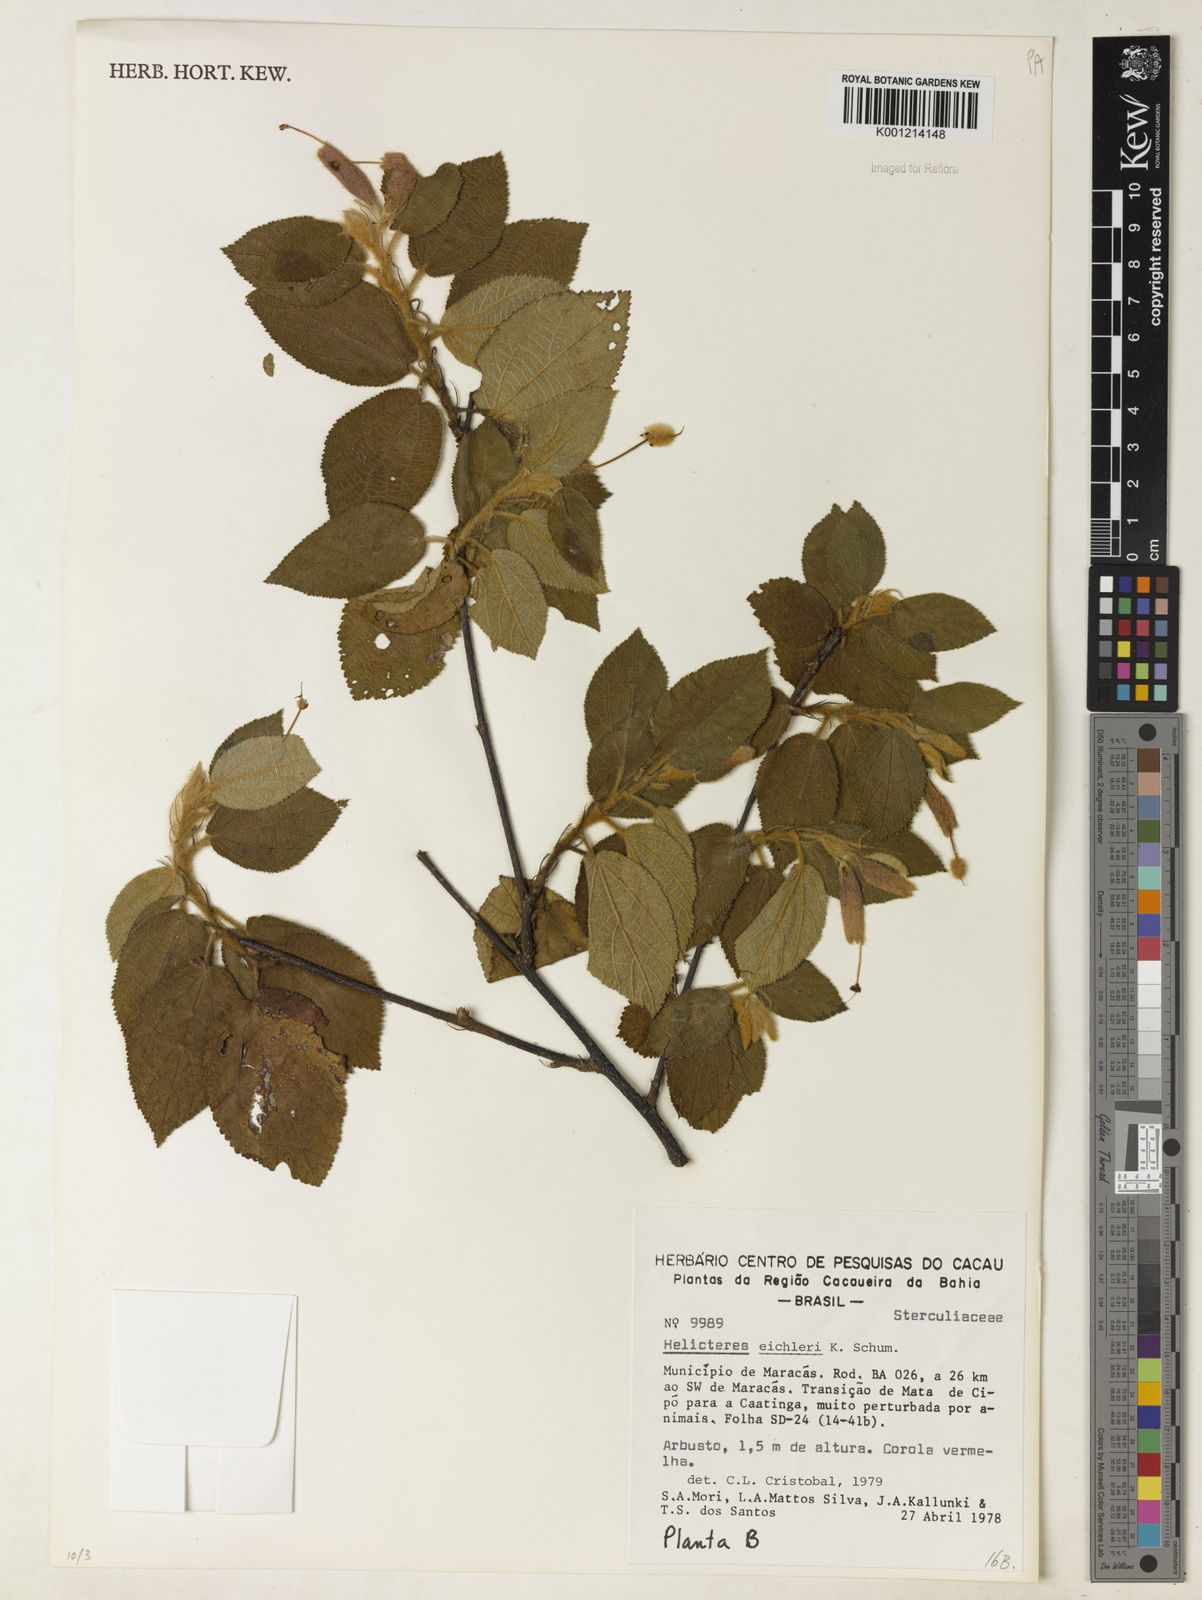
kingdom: Plantae
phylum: Tracheophyta
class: Magnoliopsida
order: Malvales
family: Malvaceae
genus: Helicteres
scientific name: Helicteres eichleri
